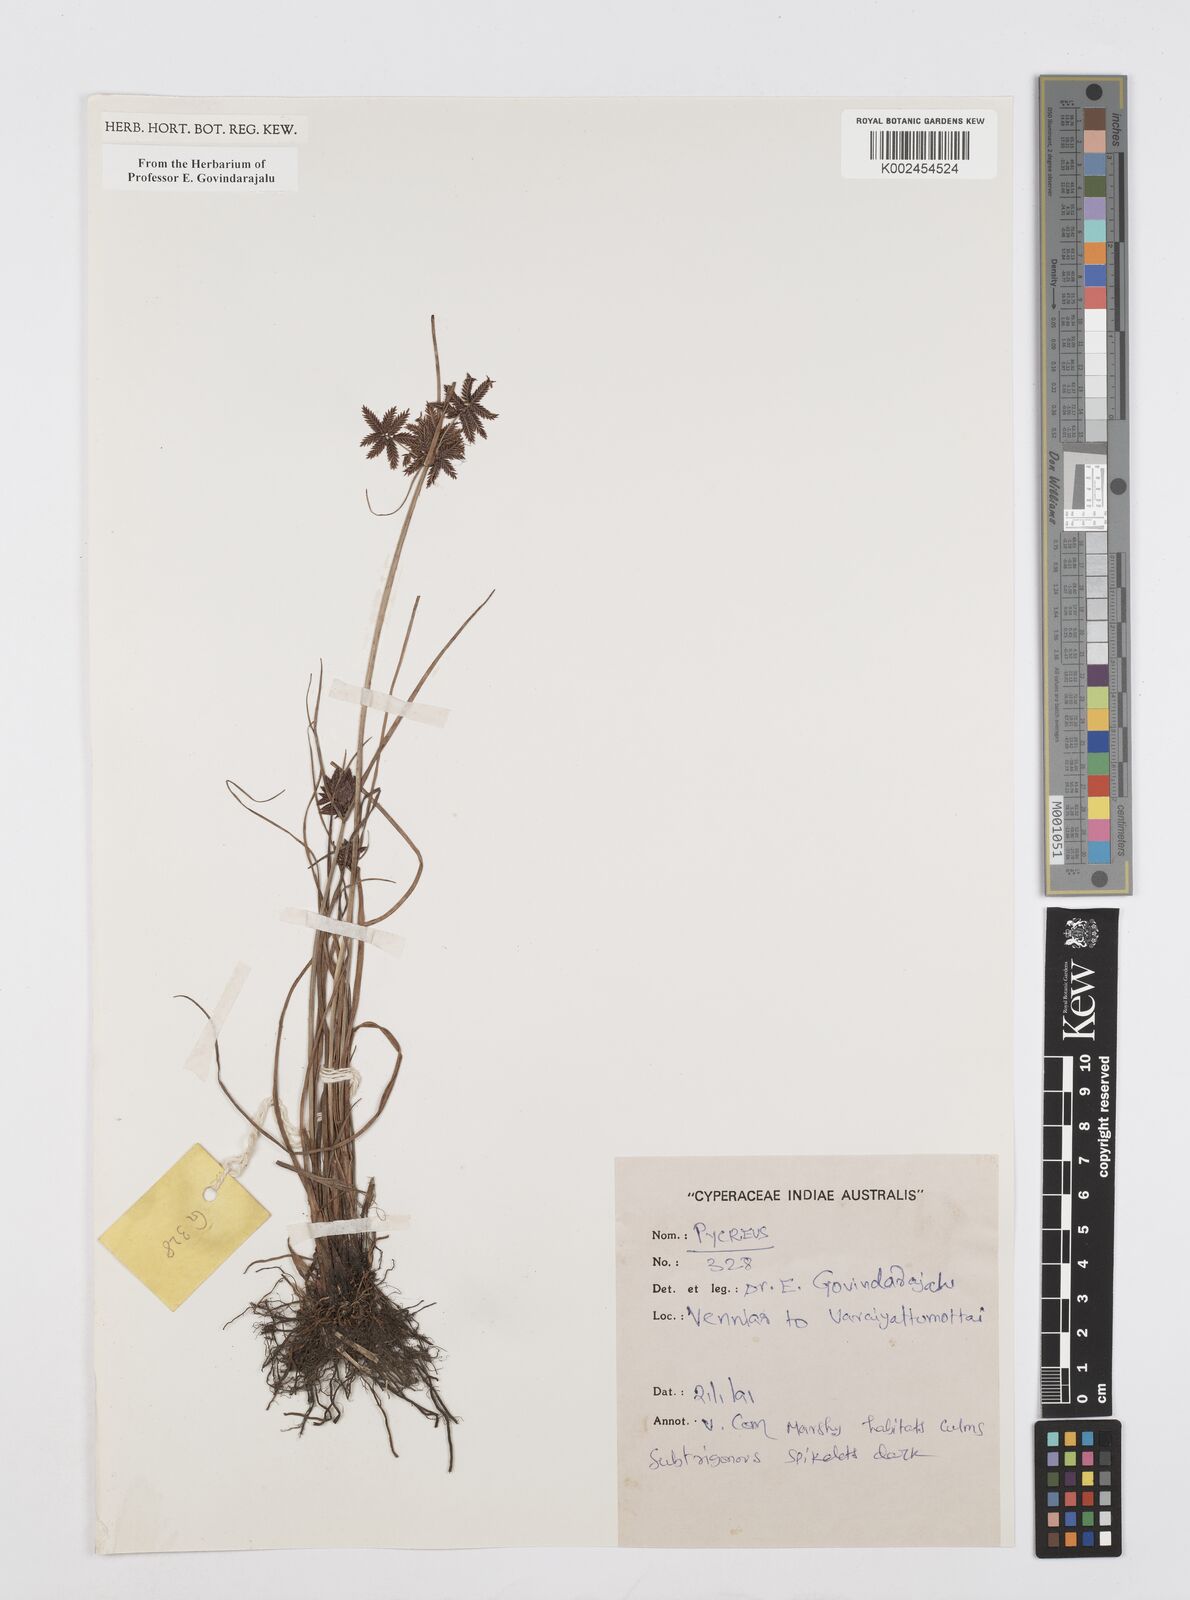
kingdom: Plantae
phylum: Tracheophyta
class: Liliopsida
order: Poales
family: Cyperaceae
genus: Cyperus
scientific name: Cyperus
